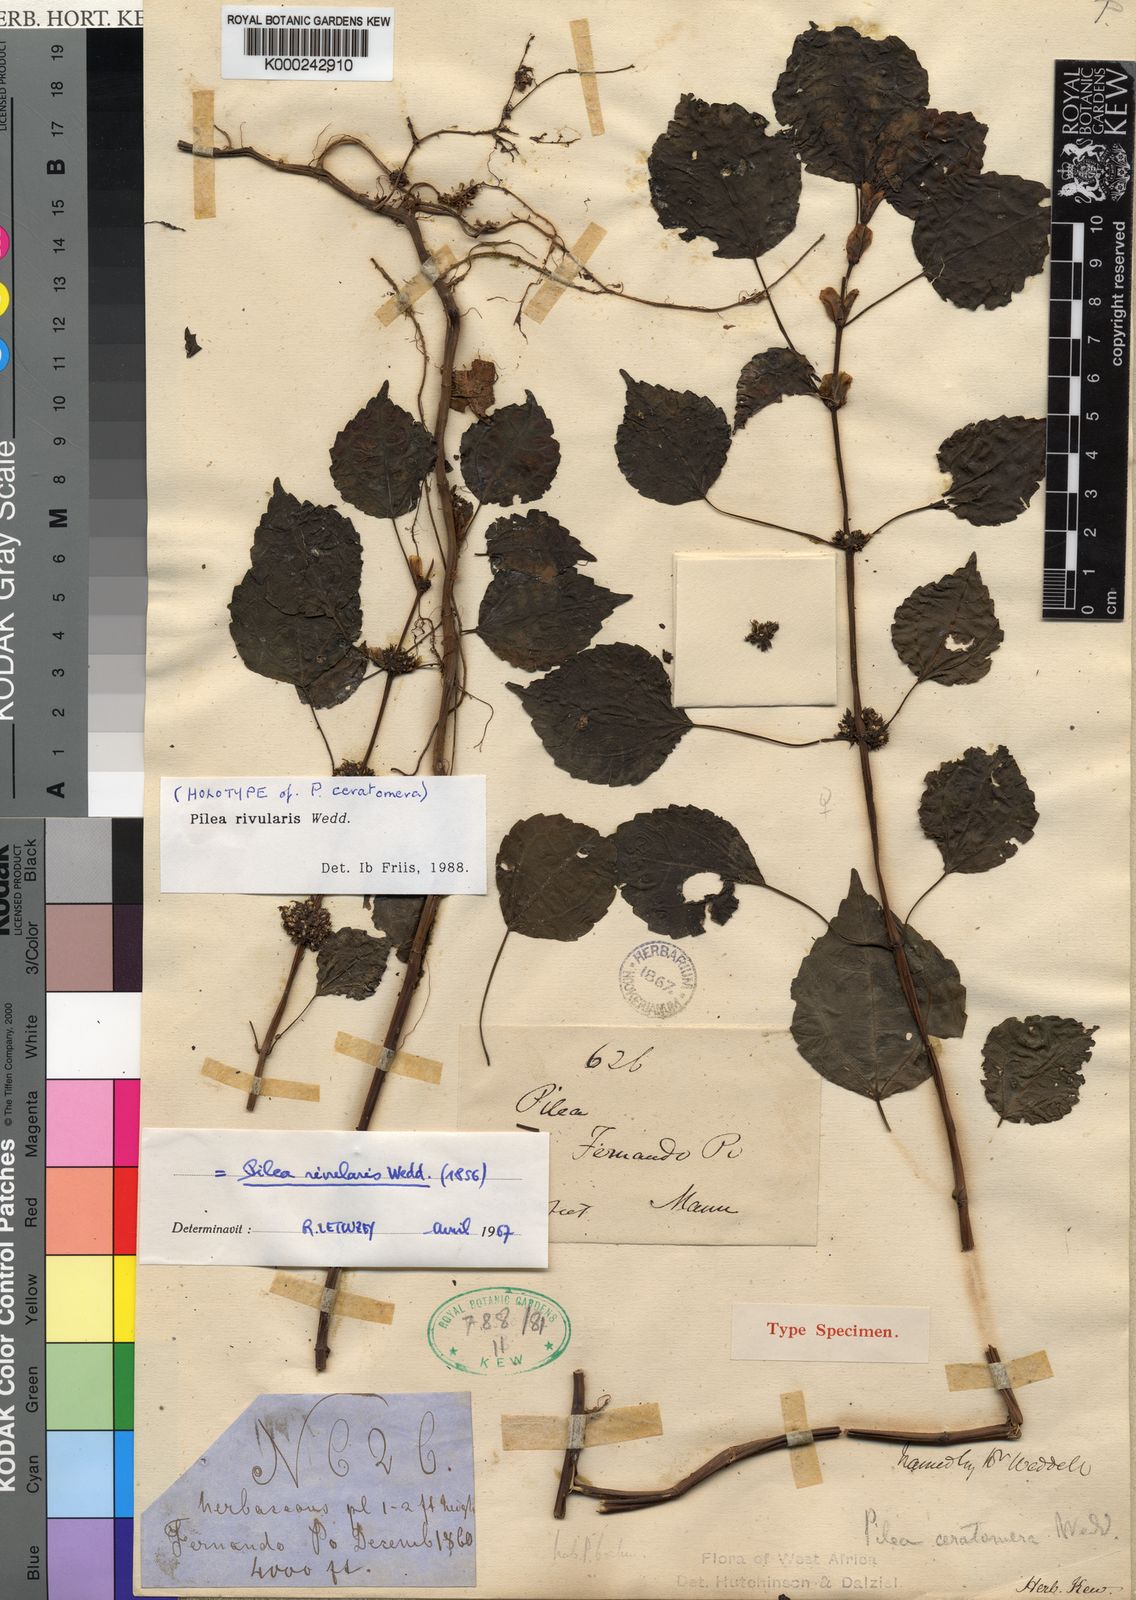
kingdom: Plantae
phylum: Tracheophyta
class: Magnoliopsida
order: Rosales
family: Urticaceae
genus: Pilea
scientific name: Pilea rivularis
